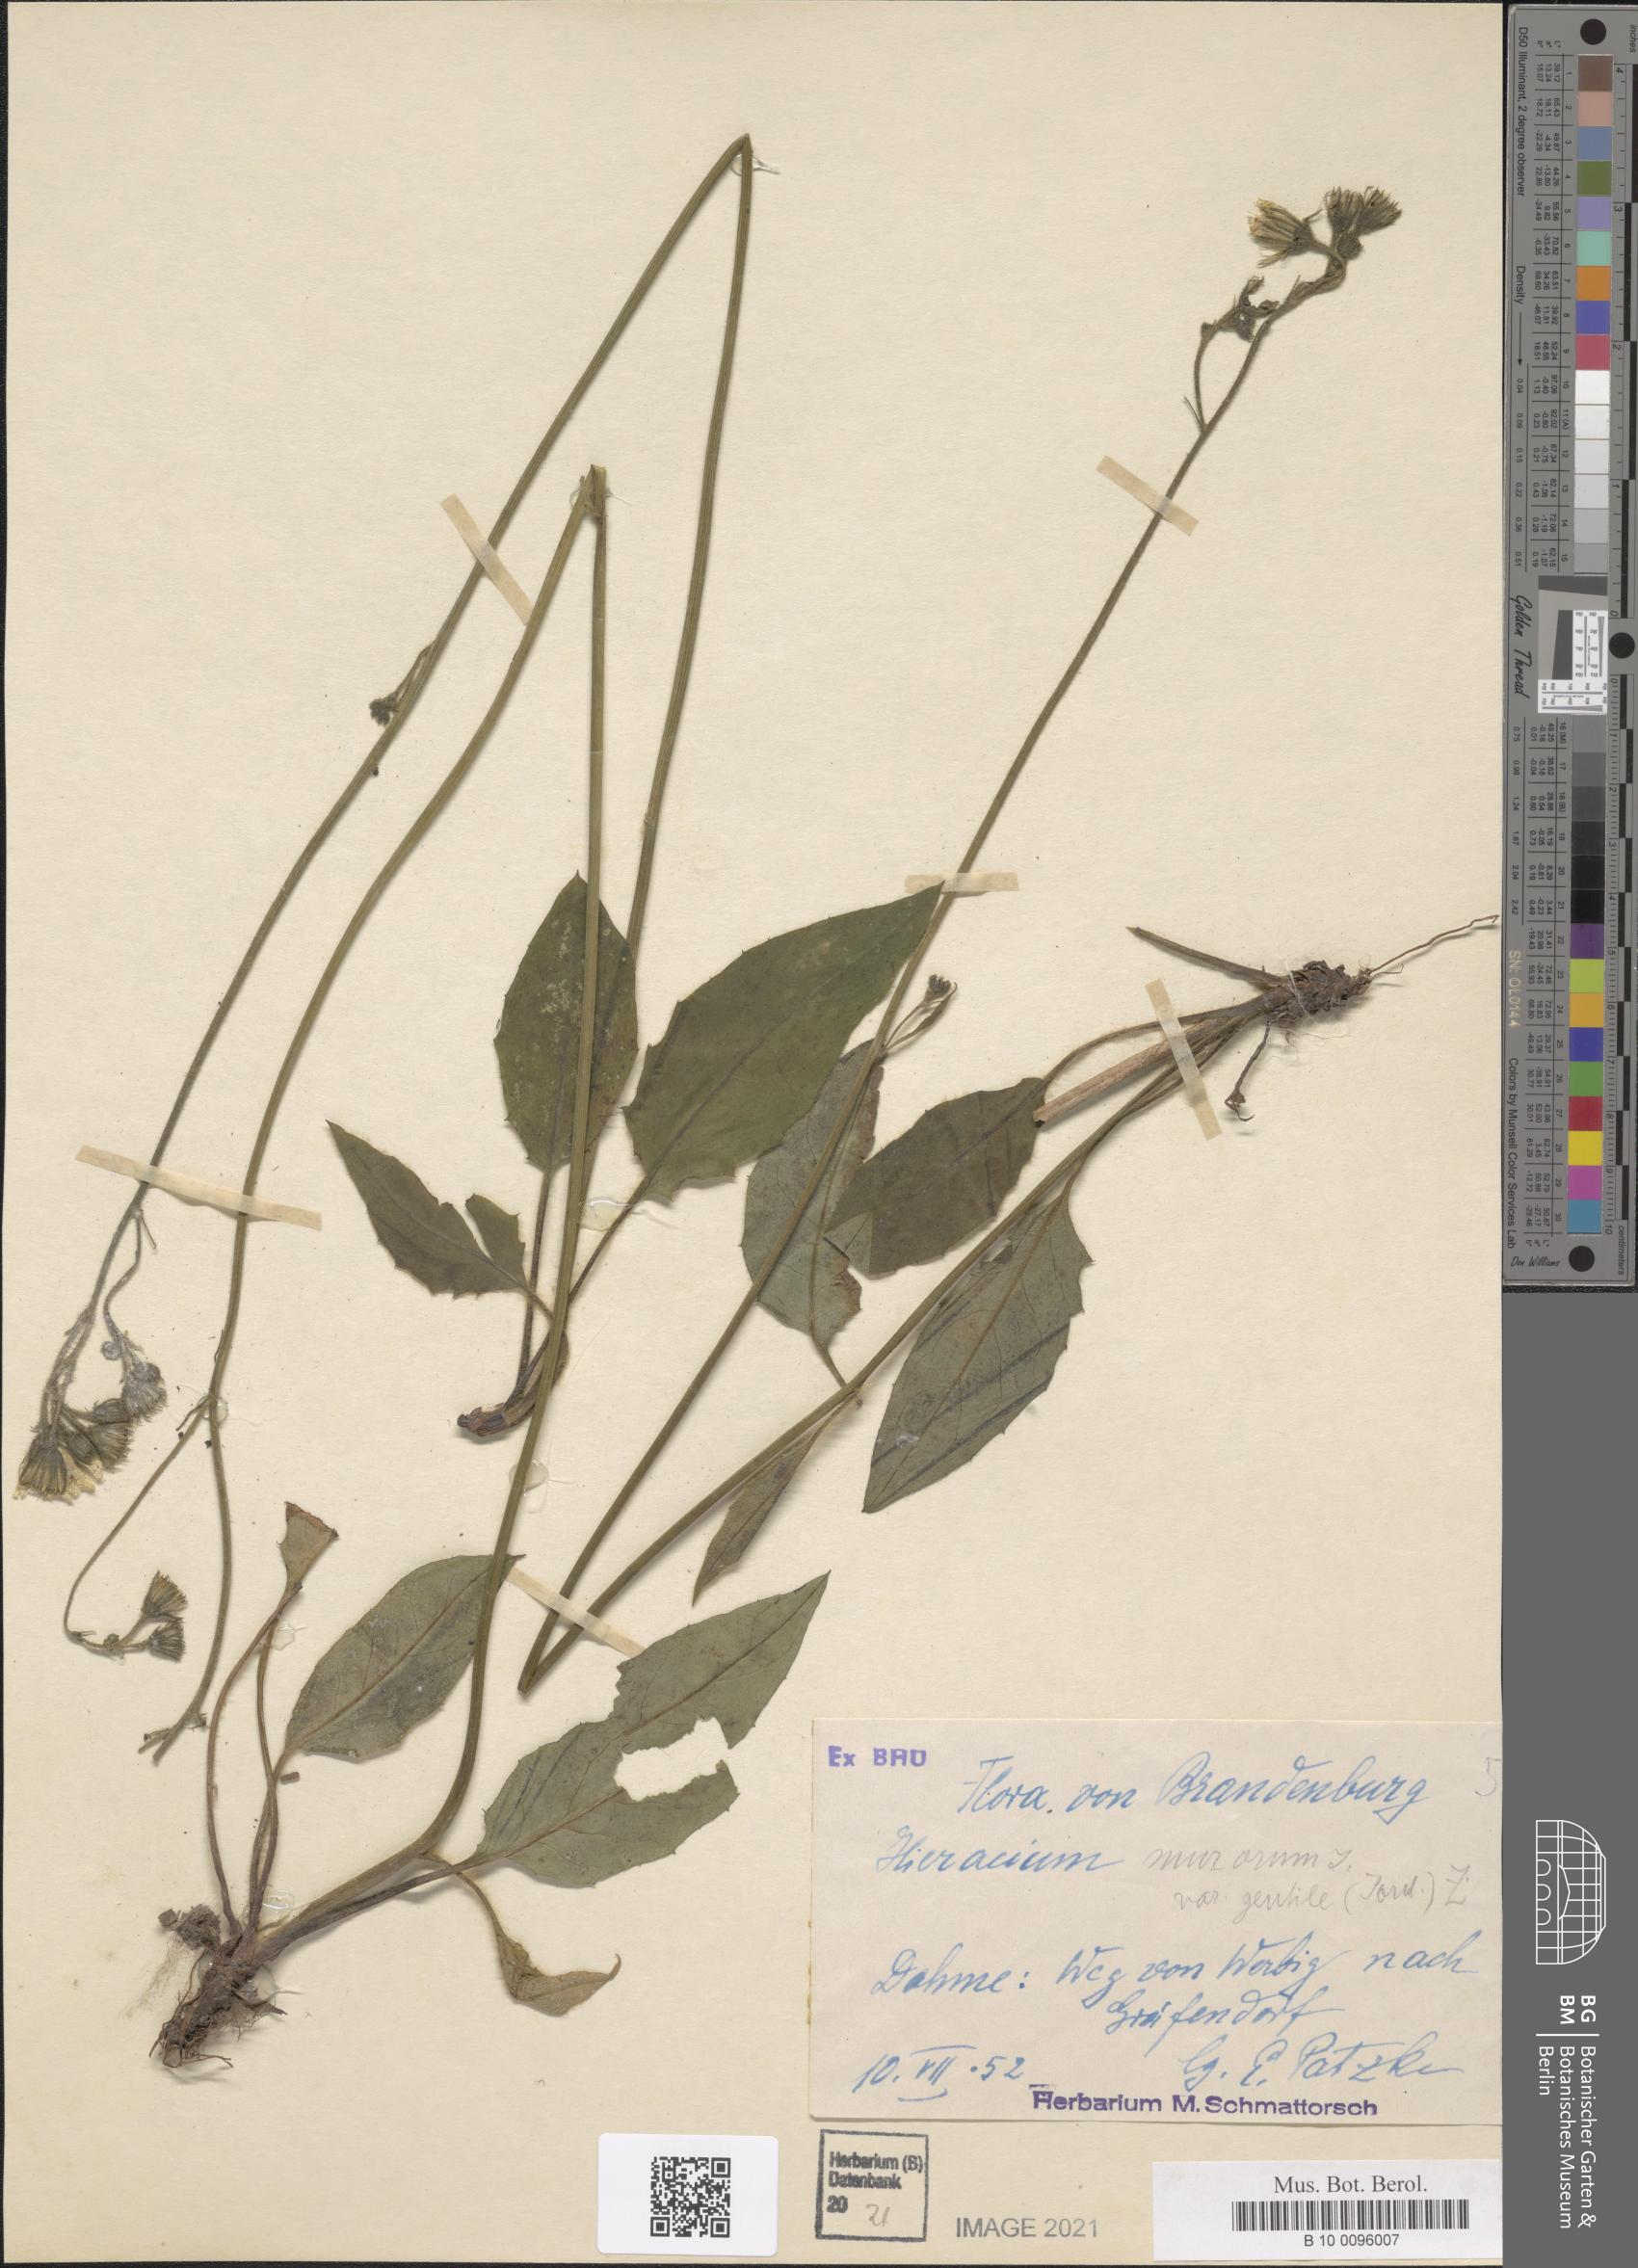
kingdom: Plantae
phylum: Tracheophyta
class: Magnoliopsida
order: Asterales
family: Asteraceae
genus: Hieracium
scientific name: Hieracium murorum
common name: Wall hawkweed
